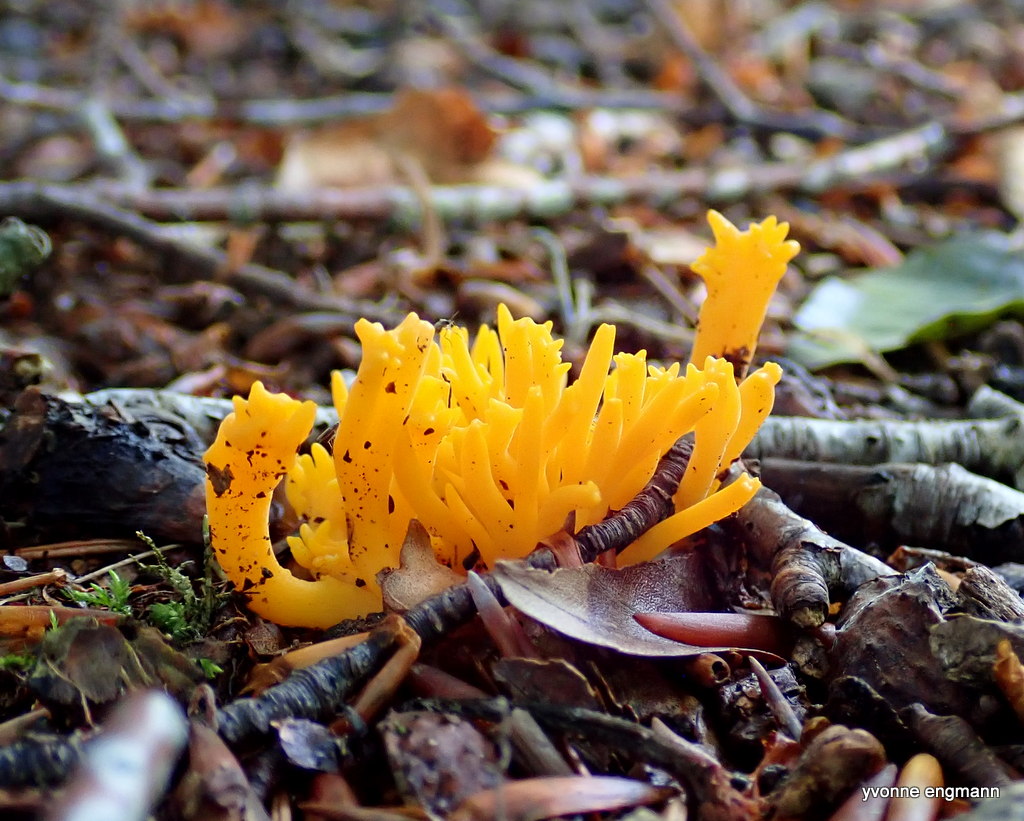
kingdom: Fungi
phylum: Basidiomycota
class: Dacrymycetes
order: Dacrymycetales
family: Dacrymycetaceae
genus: Calocera
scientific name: Calocera viscosa
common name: almindelig guldgaffel
